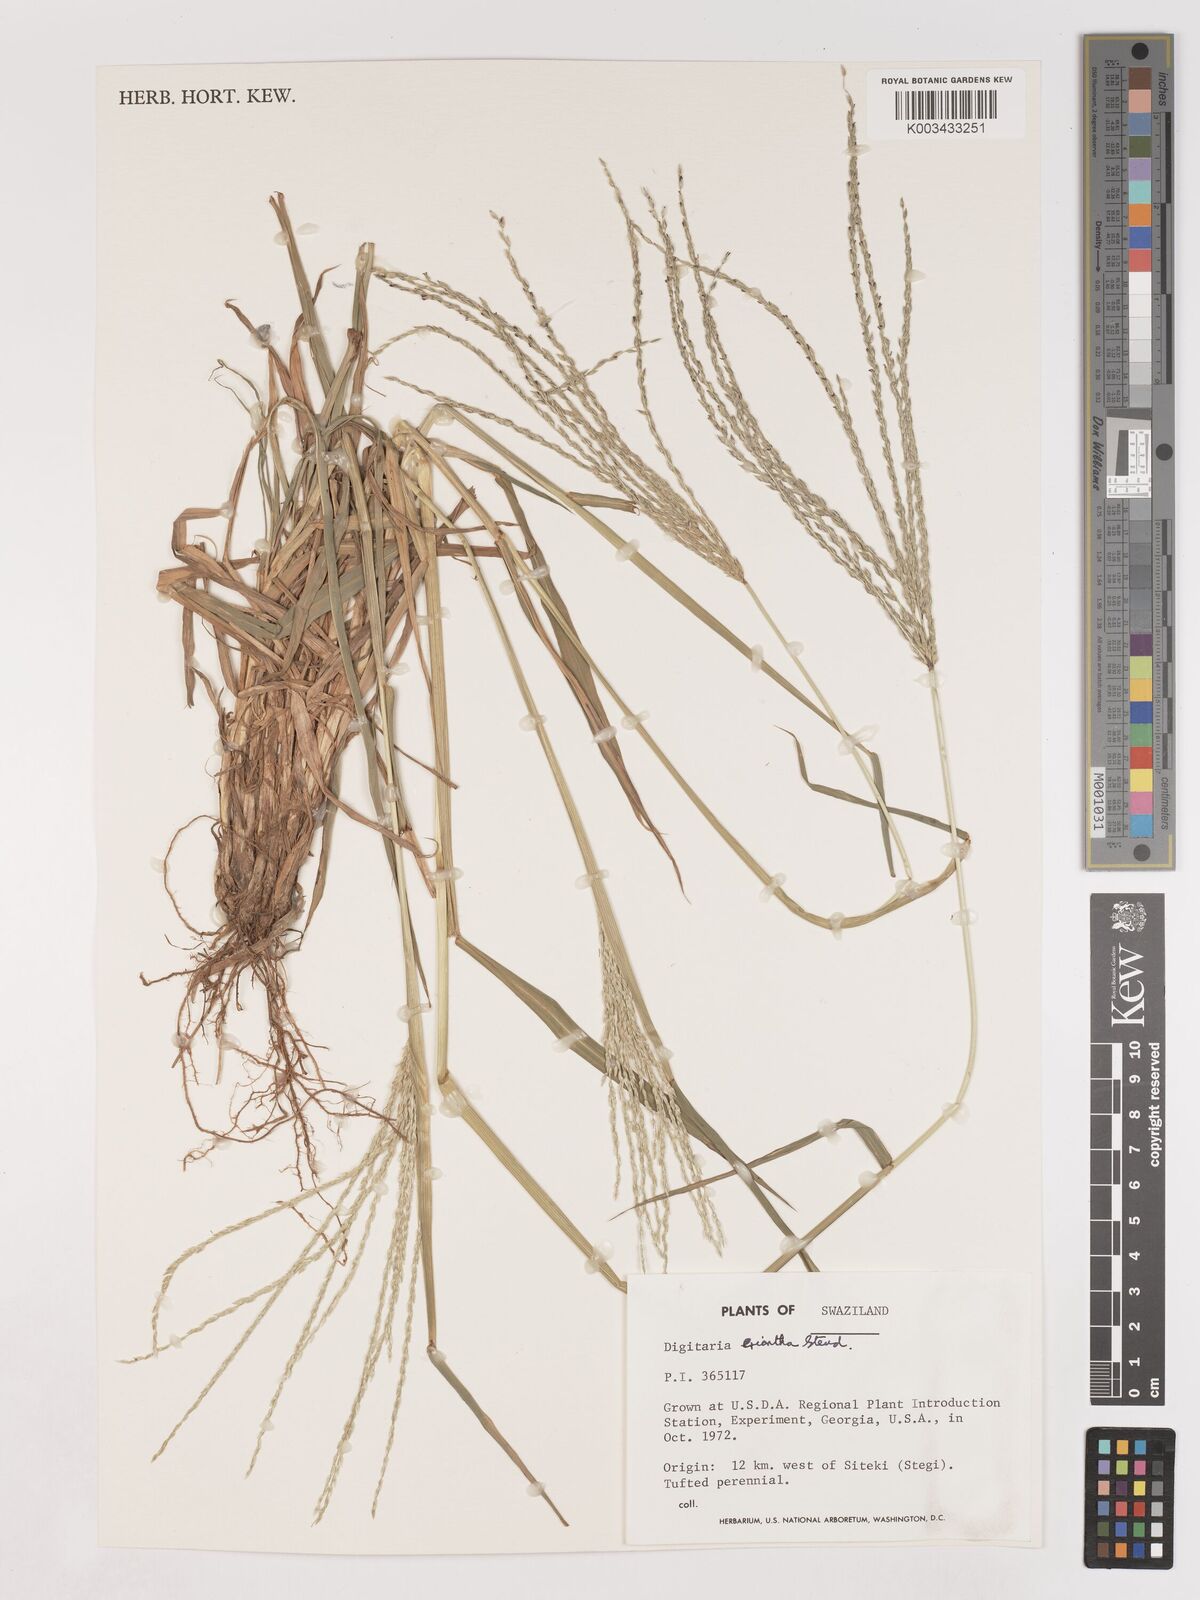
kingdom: Plantae
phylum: Tracheophyta
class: Liliopsida
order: Poales
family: Poaceae
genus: Digitaria
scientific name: Digitaria eriantha
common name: Digitgrass
